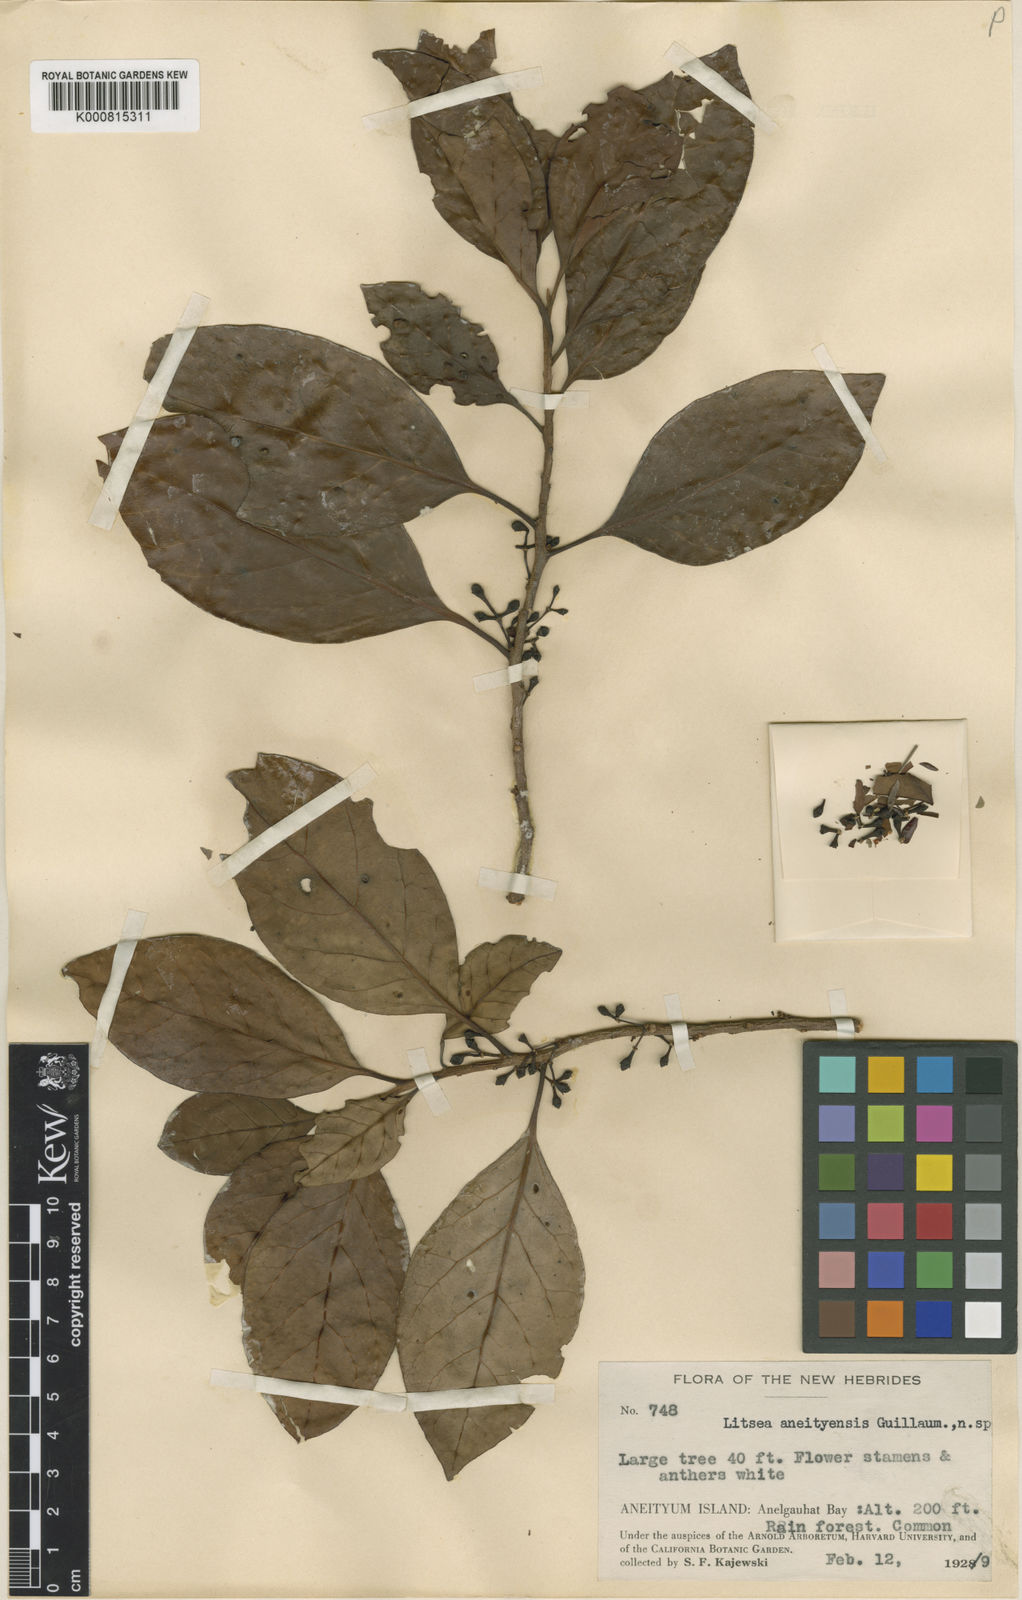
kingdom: Plantae
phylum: Tracheophyta
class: Magnoliopsida
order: Laurales
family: Lauraceae
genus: Litsea
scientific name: Litsea aneityensis
